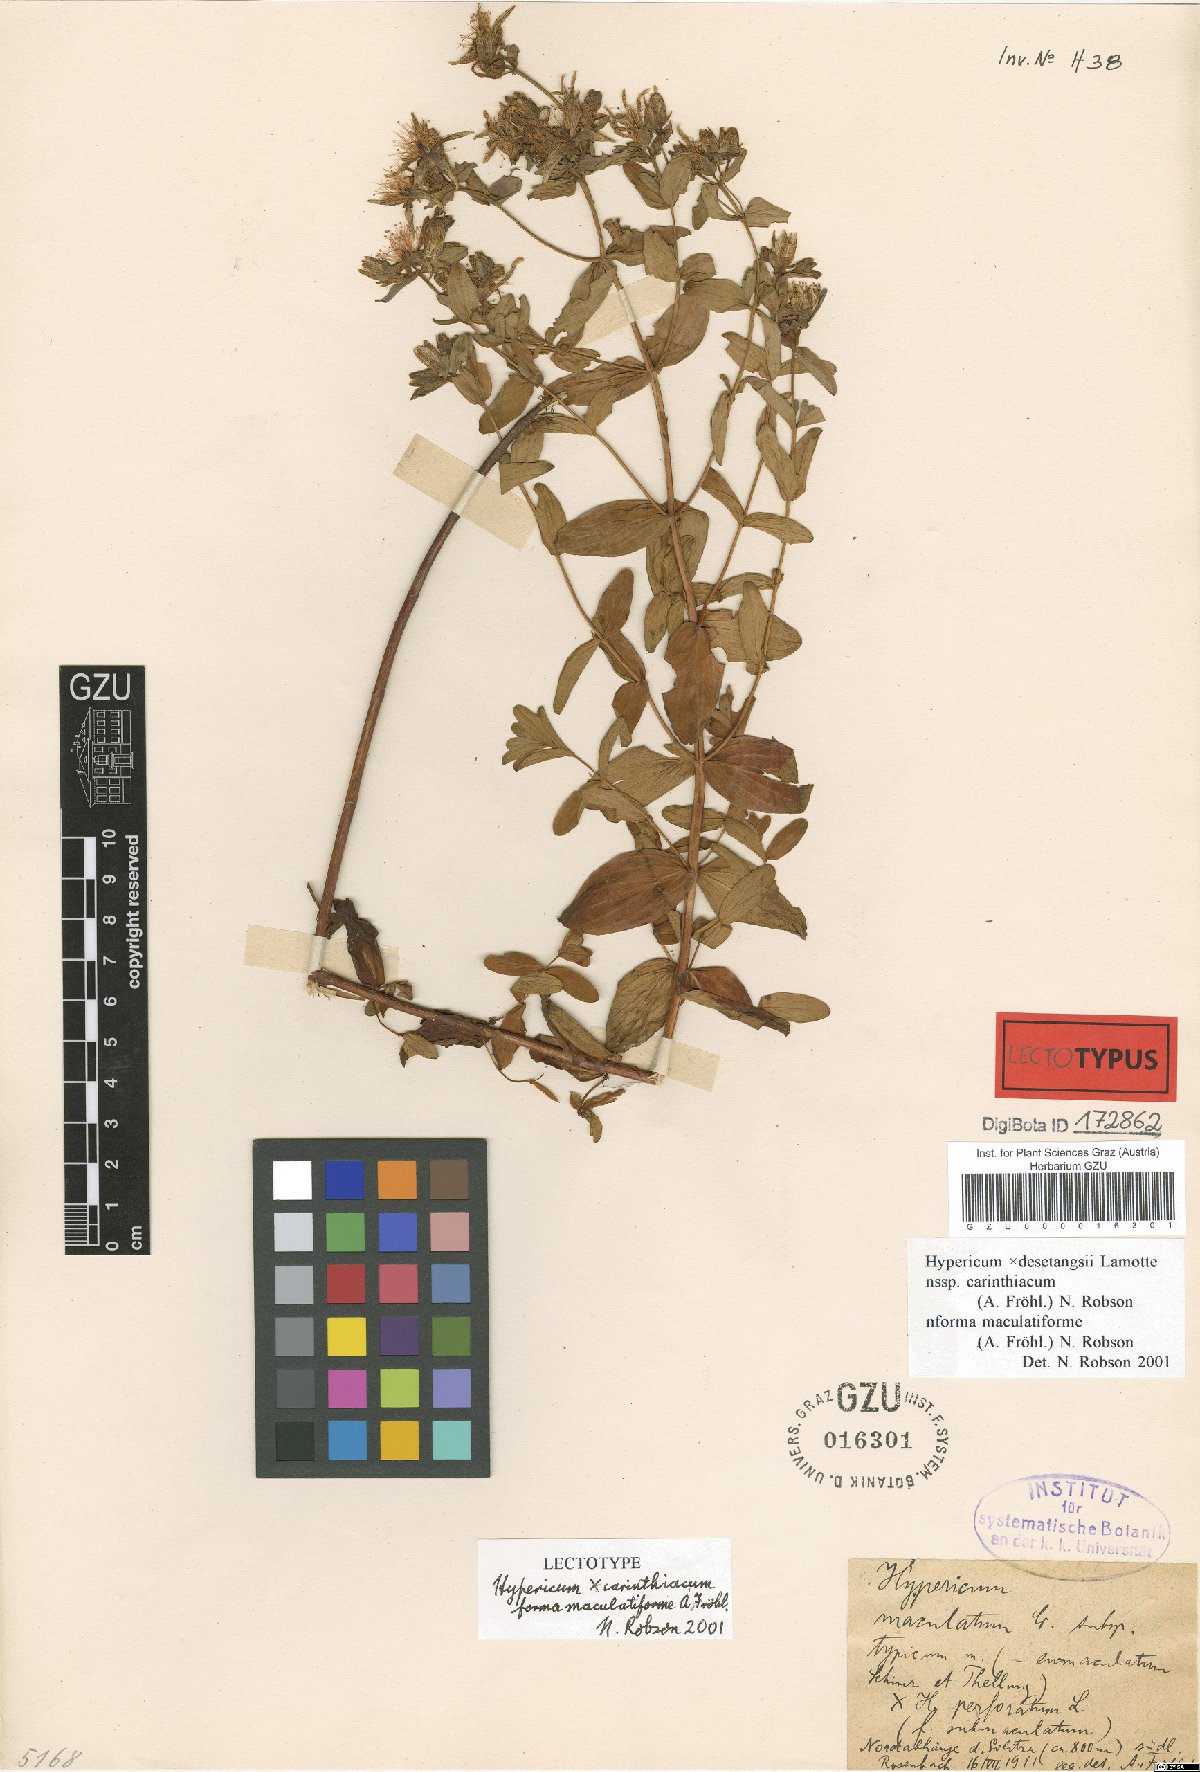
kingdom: Plantae
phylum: Tracheophyta
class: Magnoliopsida
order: Malpighiales
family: Hypericaceae
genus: Hypericum
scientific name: Hypericum carinthiacum
